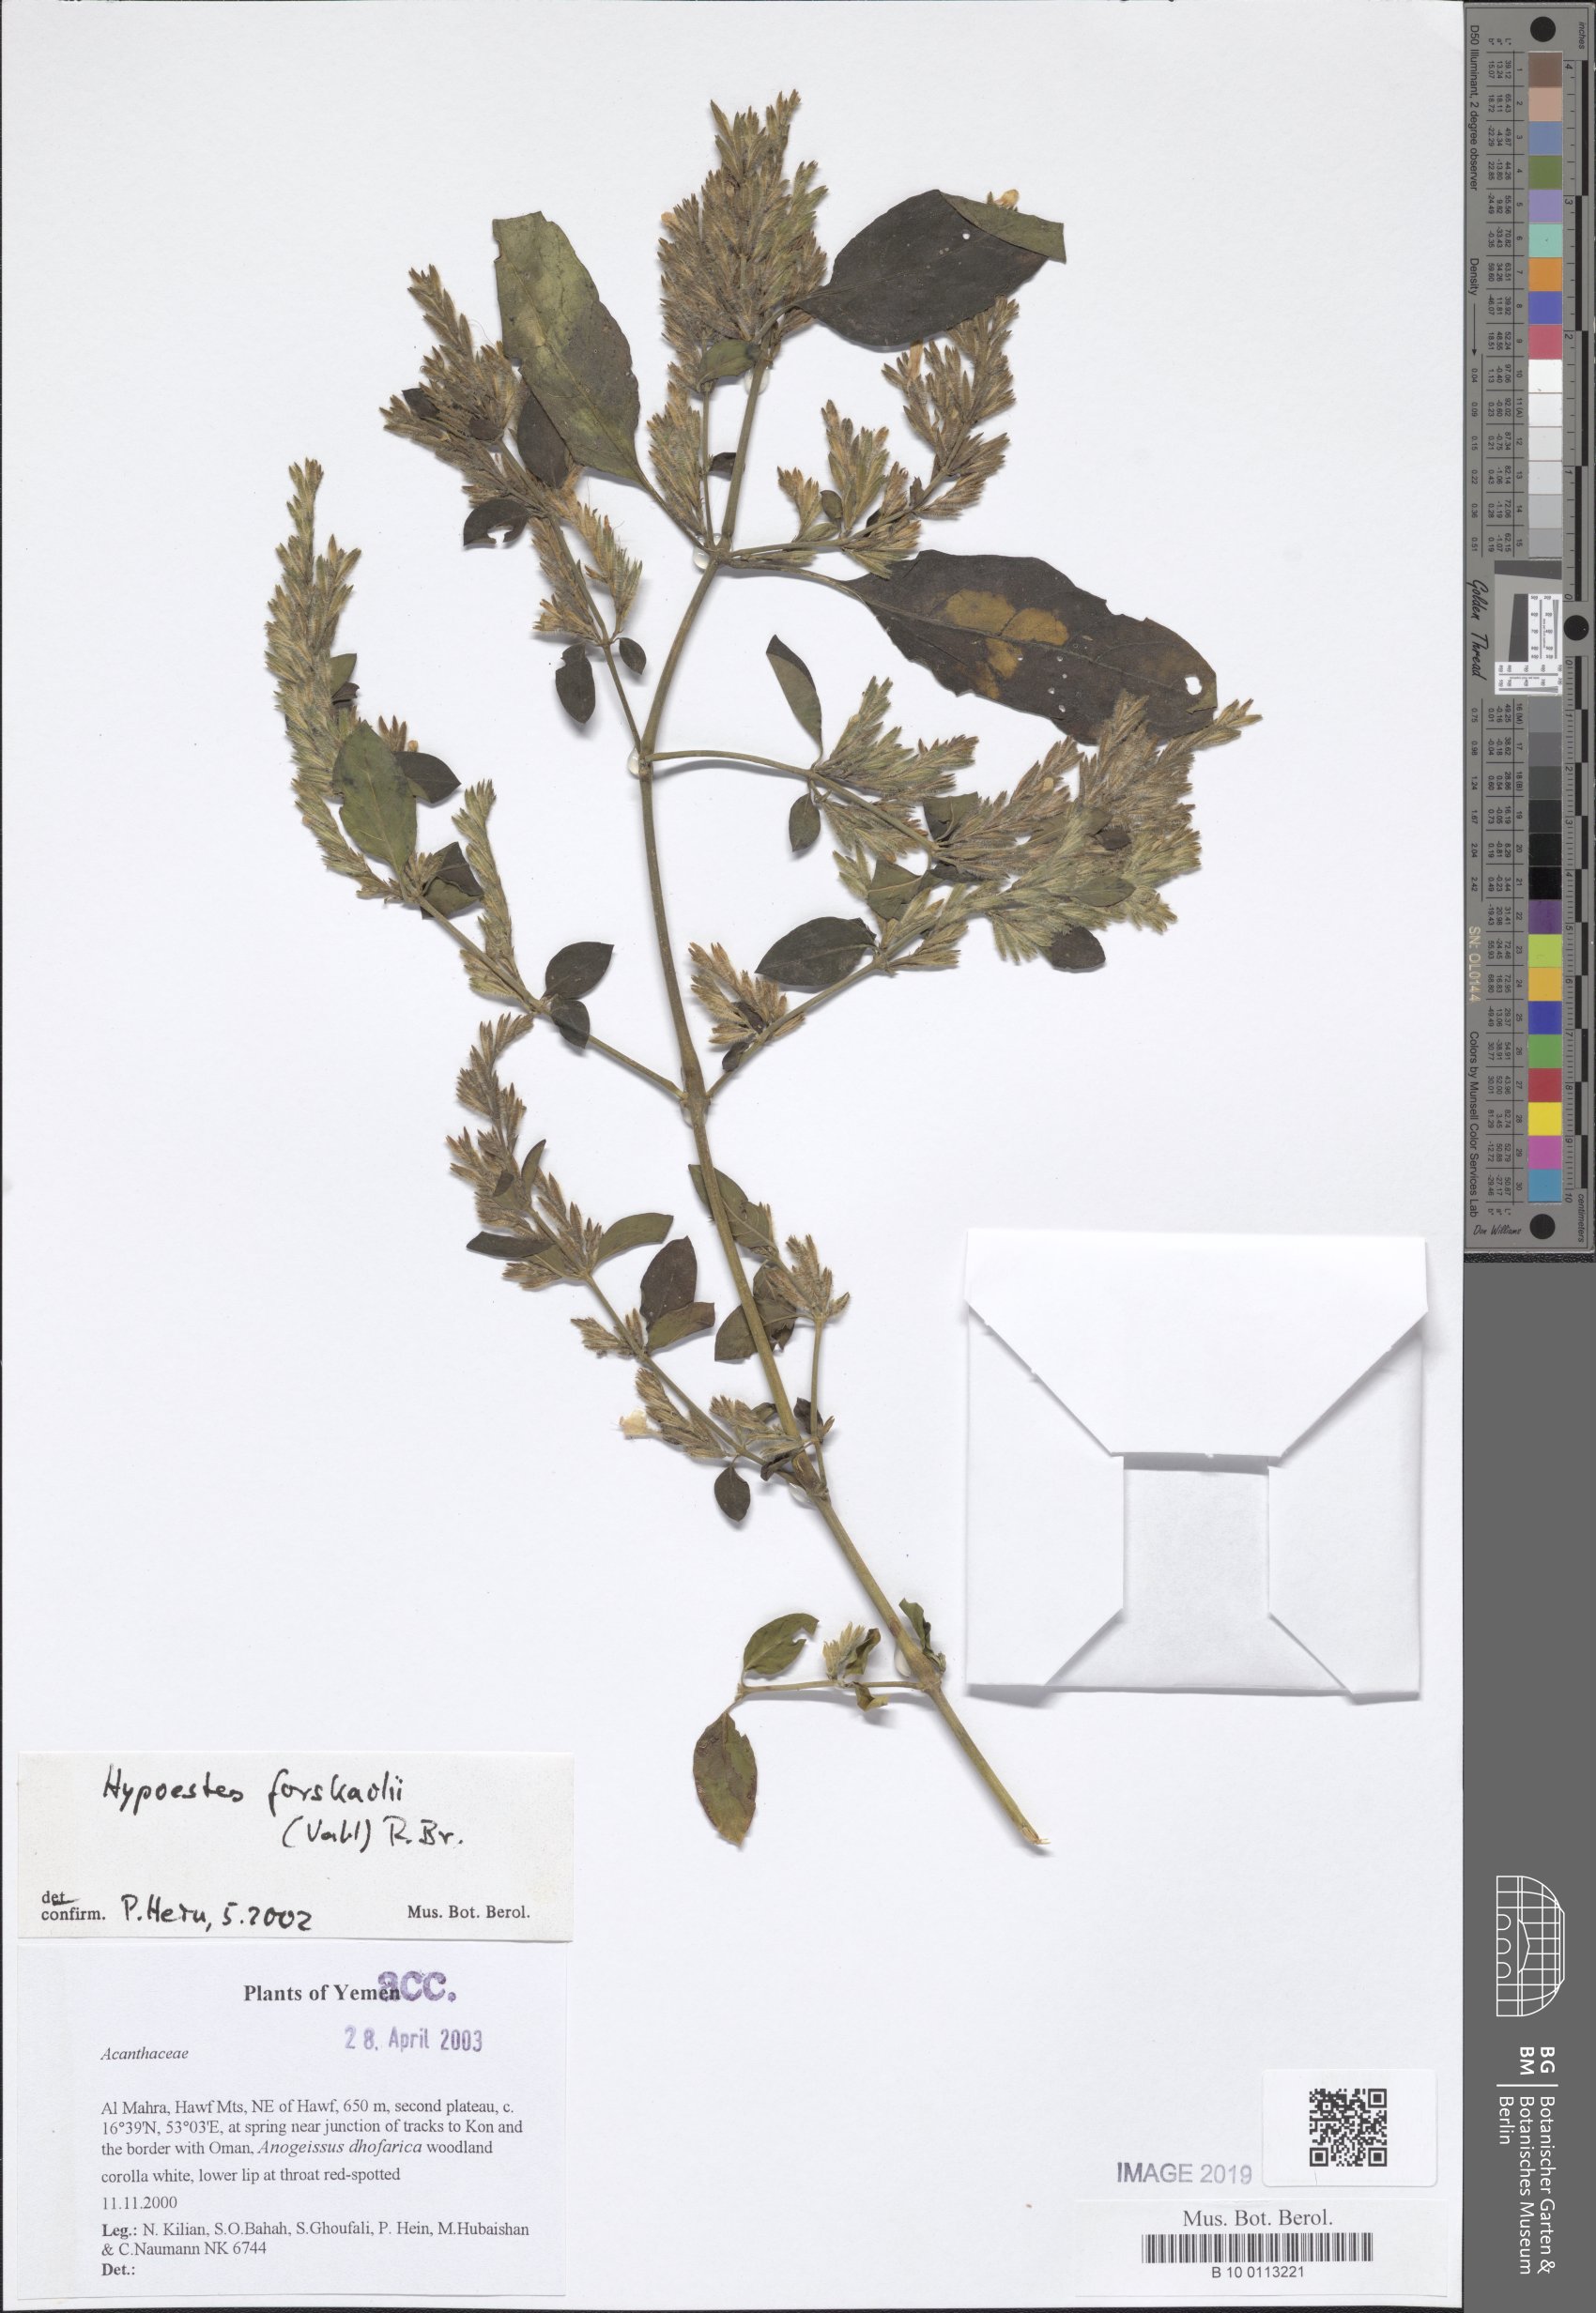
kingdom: Plantae
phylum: Tracheophyta
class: Magnoliopsida
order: Lamiales
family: Acanthaceae
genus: Hypoestes
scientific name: Hypoestes forskaolii
